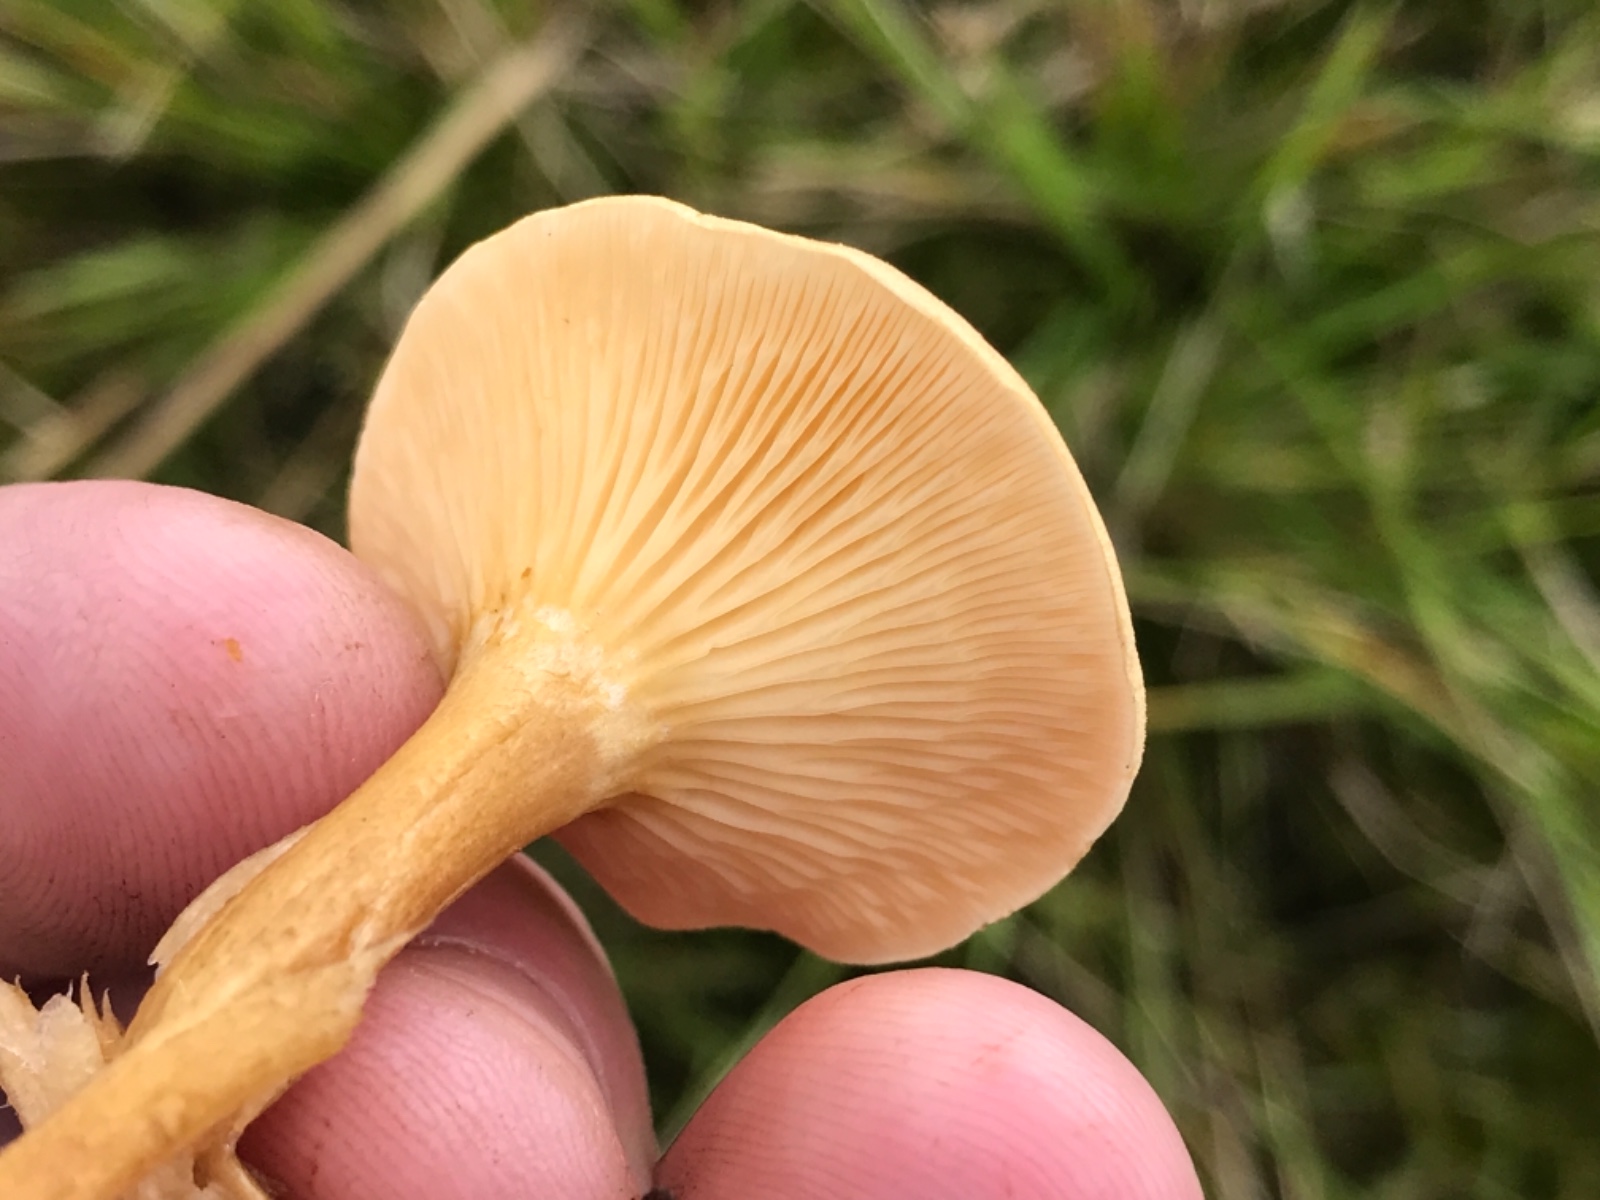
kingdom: Fungi
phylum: Basidiomycota
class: Agaricomycetes
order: Boletales
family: Hygrophoropsidaceae
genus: Hygrophoropsis
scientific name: Hygrophoropsis pallida
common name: bleg orangekantarel
